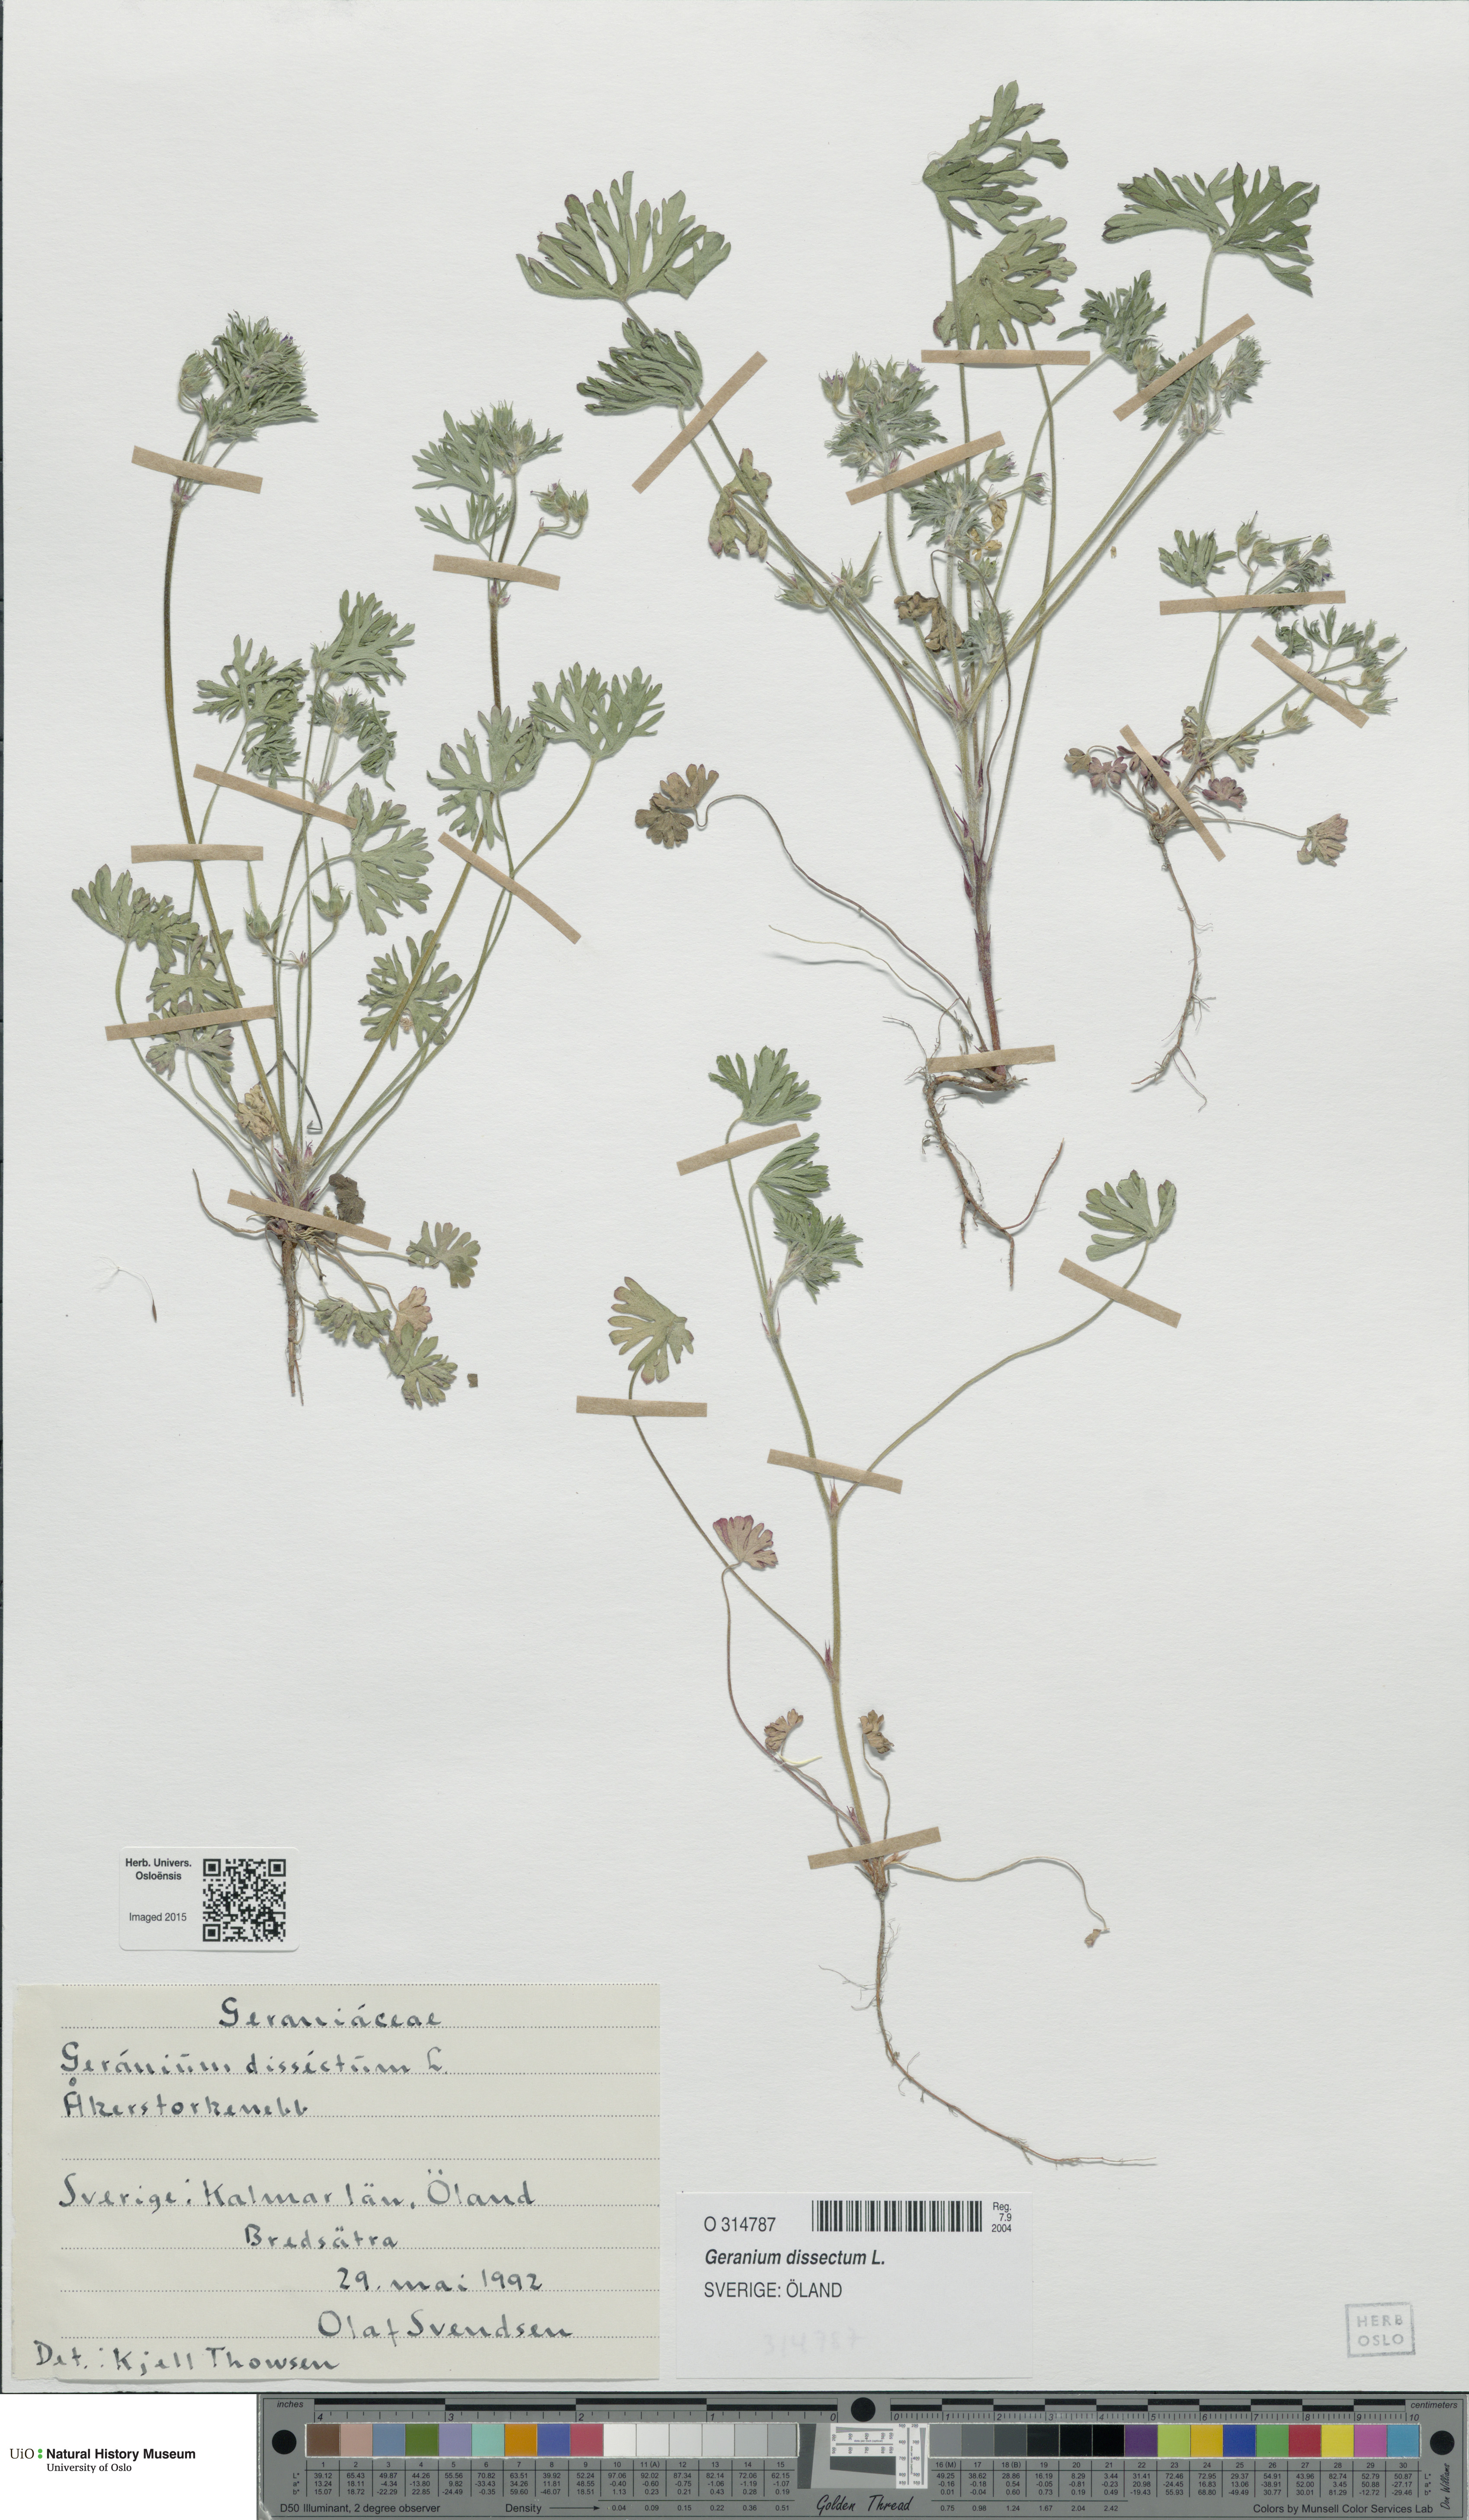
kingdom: Plantae
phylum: Tracheophyta
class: Magnoliopsida
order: Geraniales
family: Geraniaceae
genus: Geranium
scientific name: Geranium dissectum
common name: Cut-leaved crane's-bill
